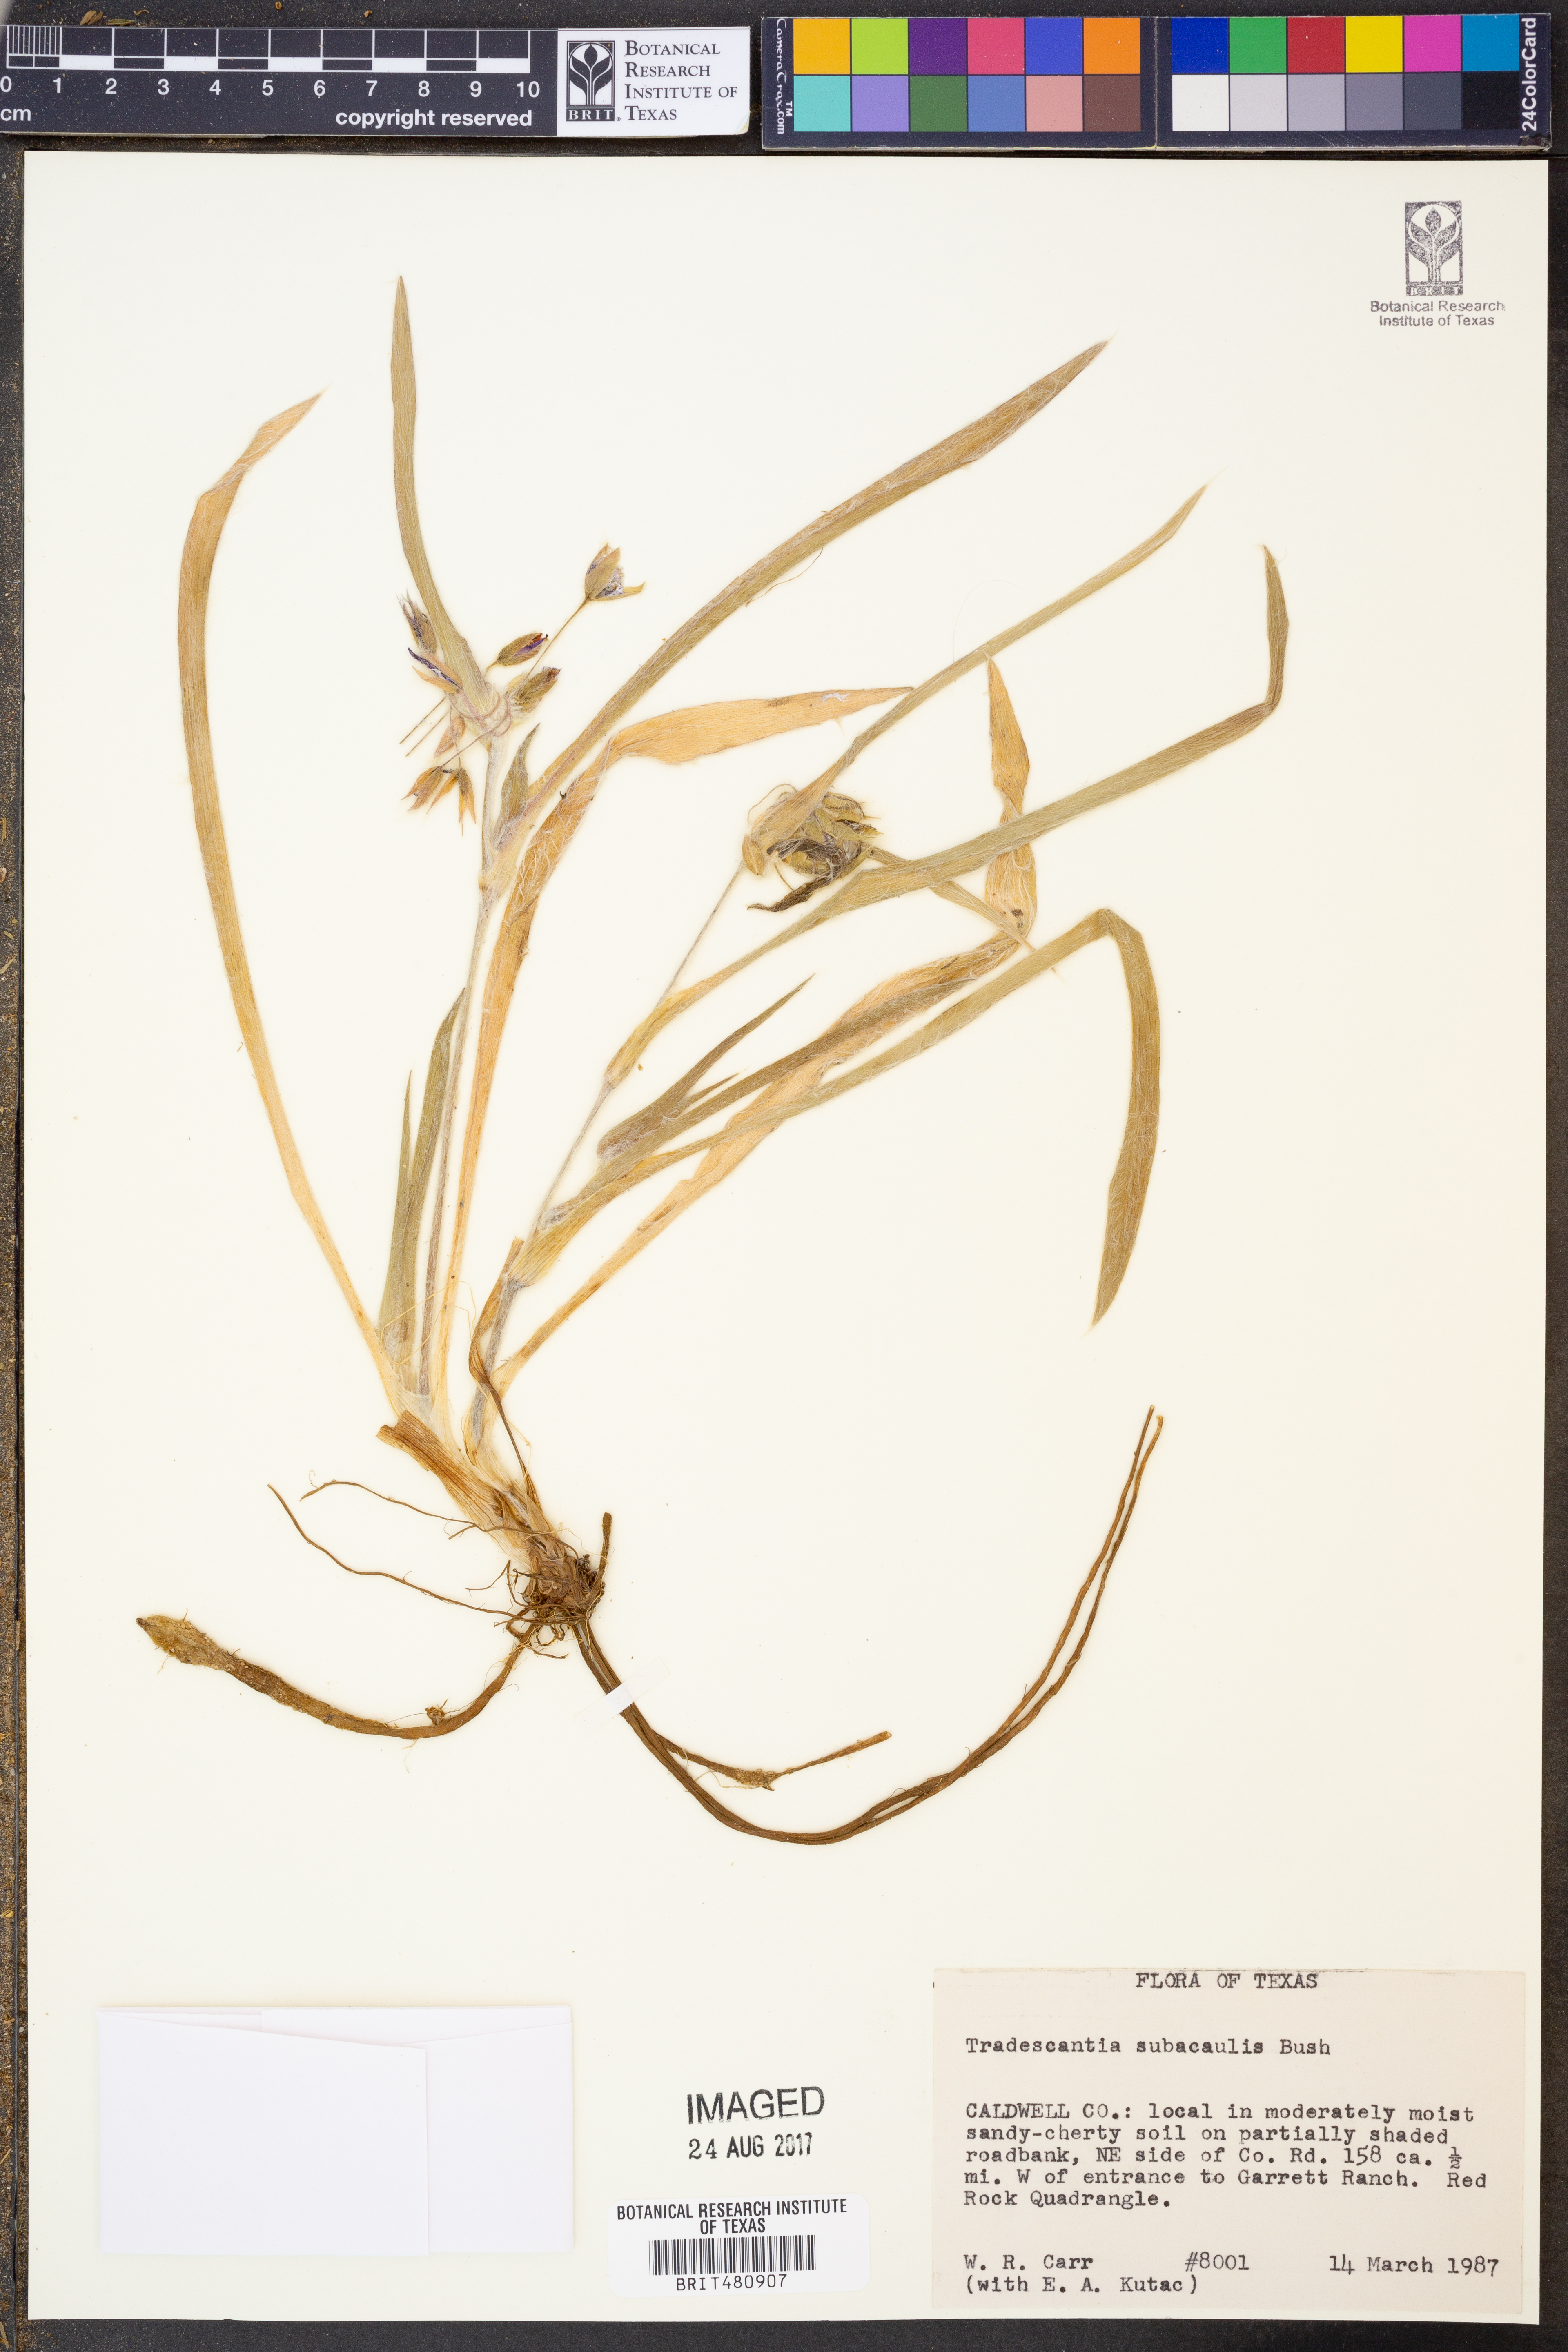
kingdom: Plantae
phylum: Tracheophyta
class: Liliopsida
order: Commelinales
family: Commelinaceae
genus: Tradescantia
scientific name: Tradescantia subacaulis
